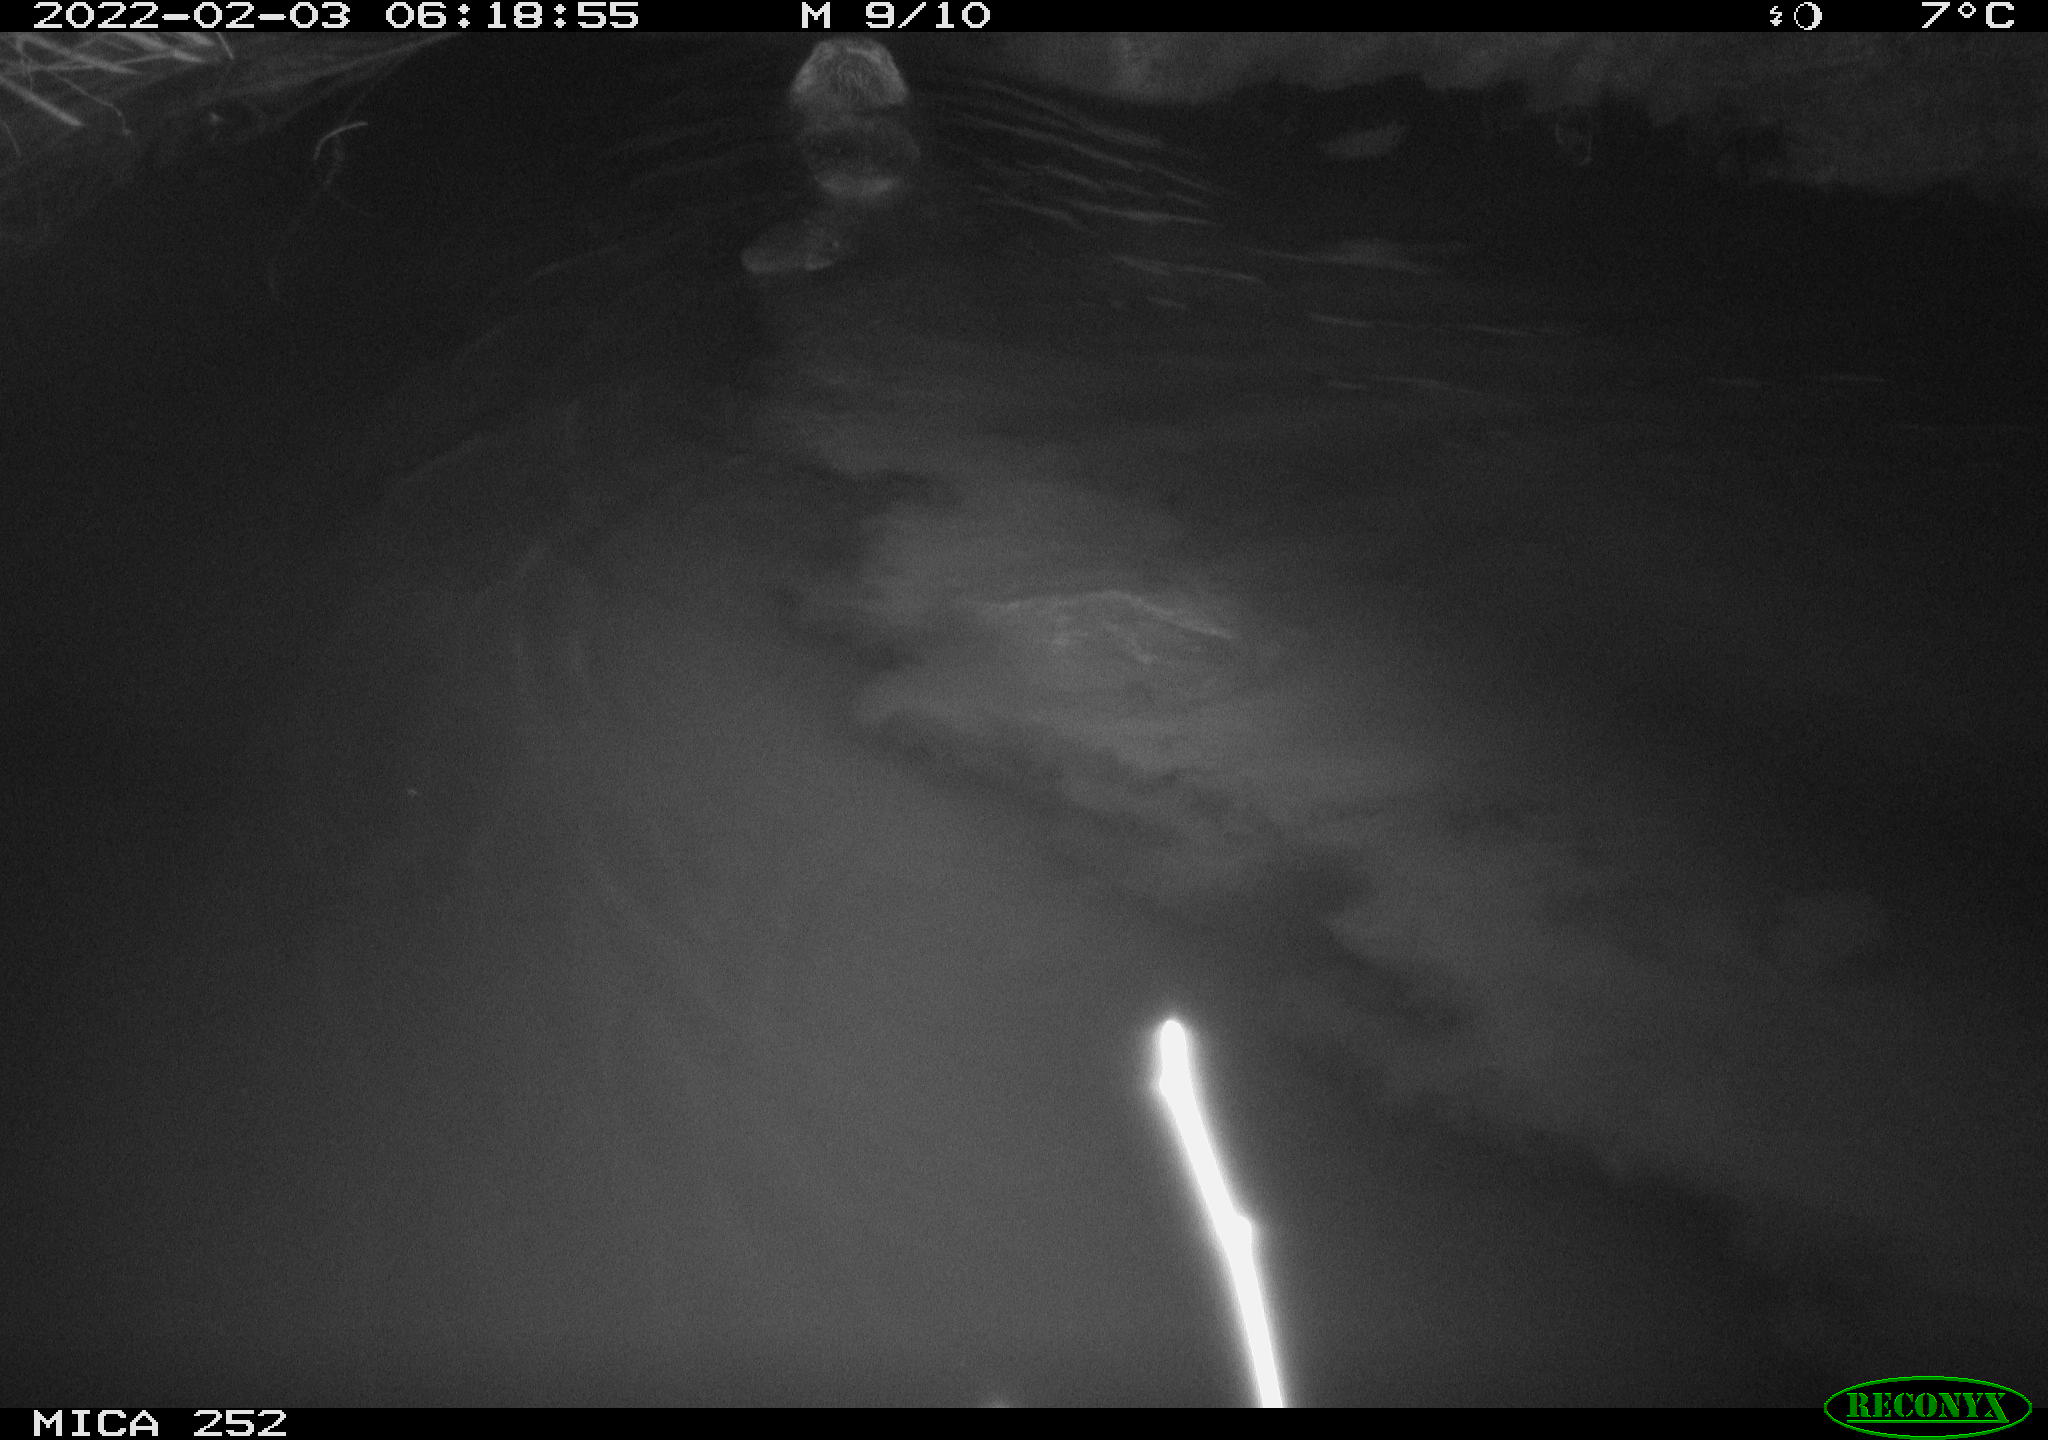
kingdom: Animalia
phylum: Chordata
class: Mammalia
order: Rodentia
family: Castoridae
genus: Castor
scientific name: Castor fiber
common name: Eurasian beaver
